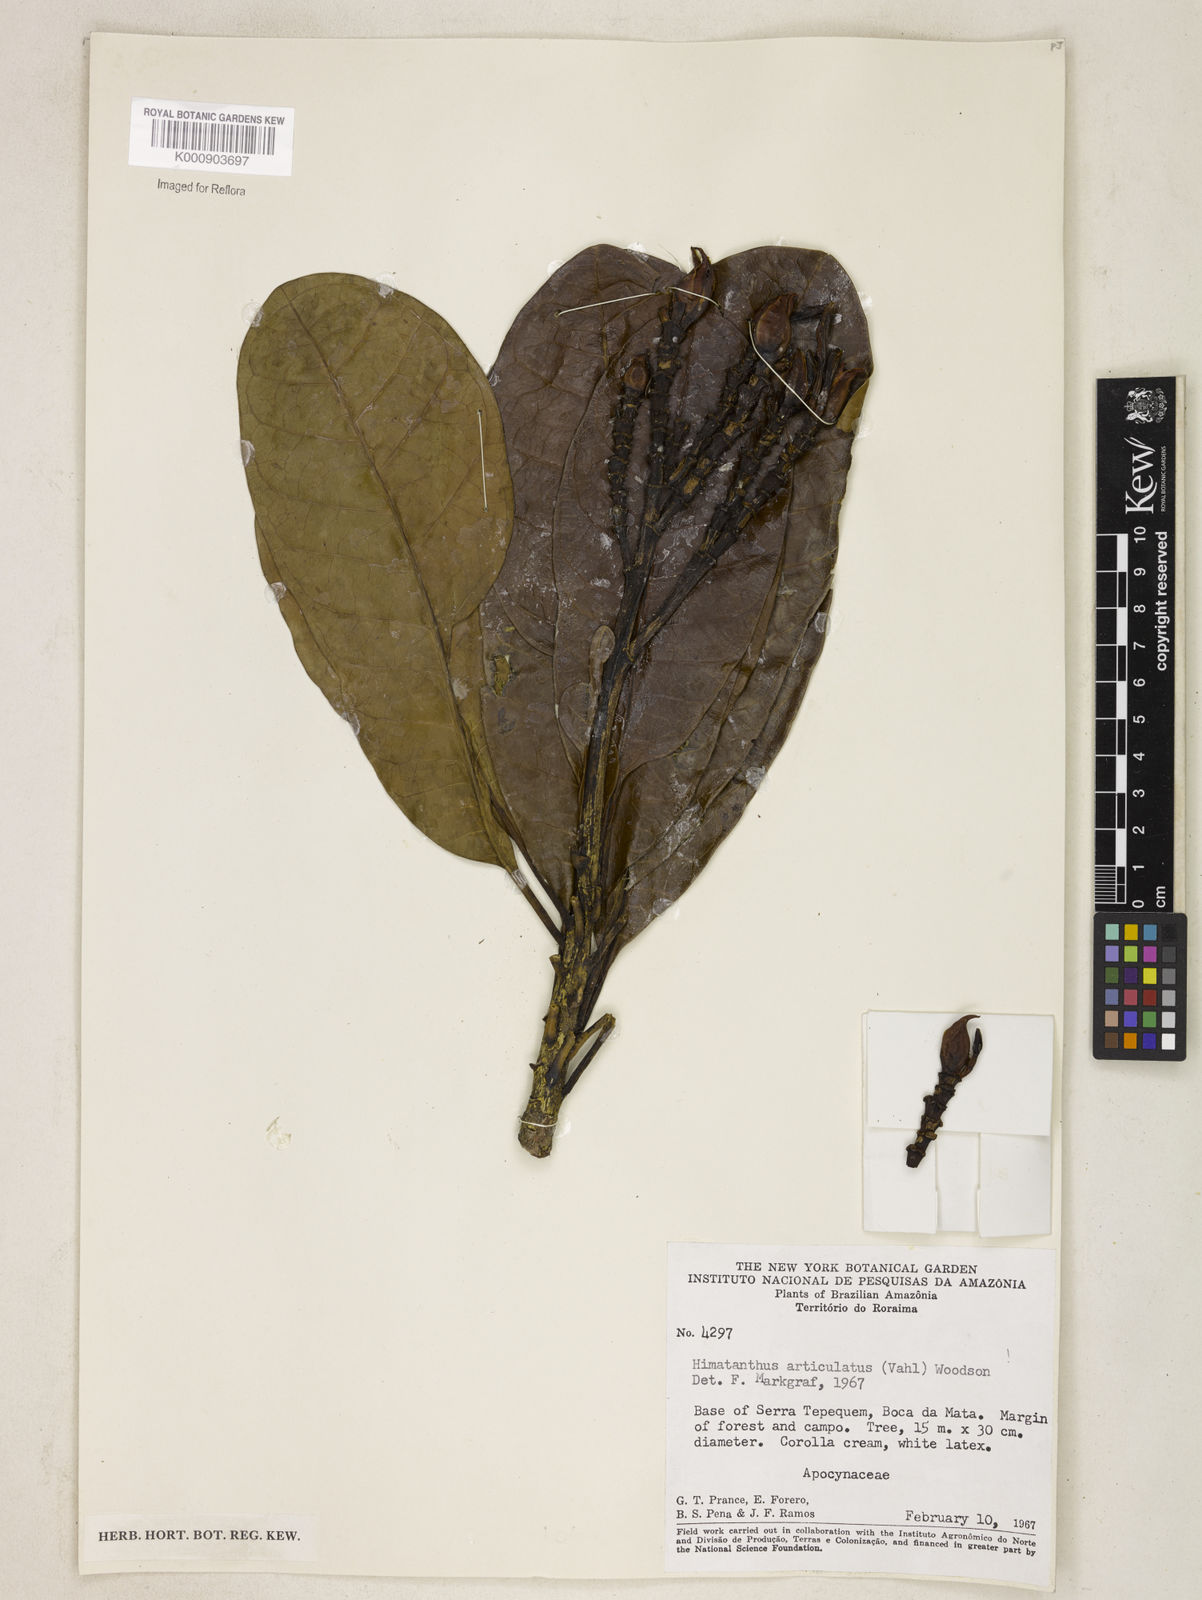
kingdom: Plantae
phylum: Tracheophyta
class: Magnoliopsida
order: Gentianales
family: Apocynaceae
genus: Himatanthus
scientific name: Himatanthus articulatus
